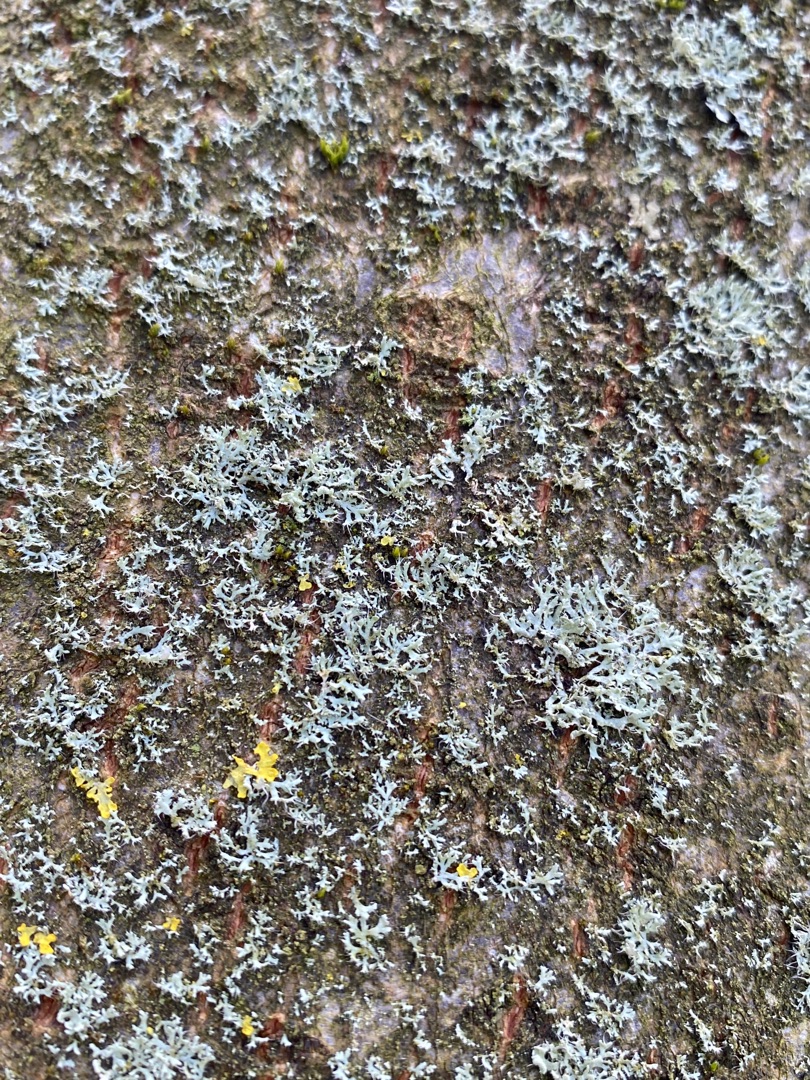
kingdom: Fungi
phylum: Ascomycota
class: Lecanoromycetes
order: Caliciales
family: Physciaceae
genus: Physcia
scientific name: Physcia tenella
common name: Spæd rosetlav
